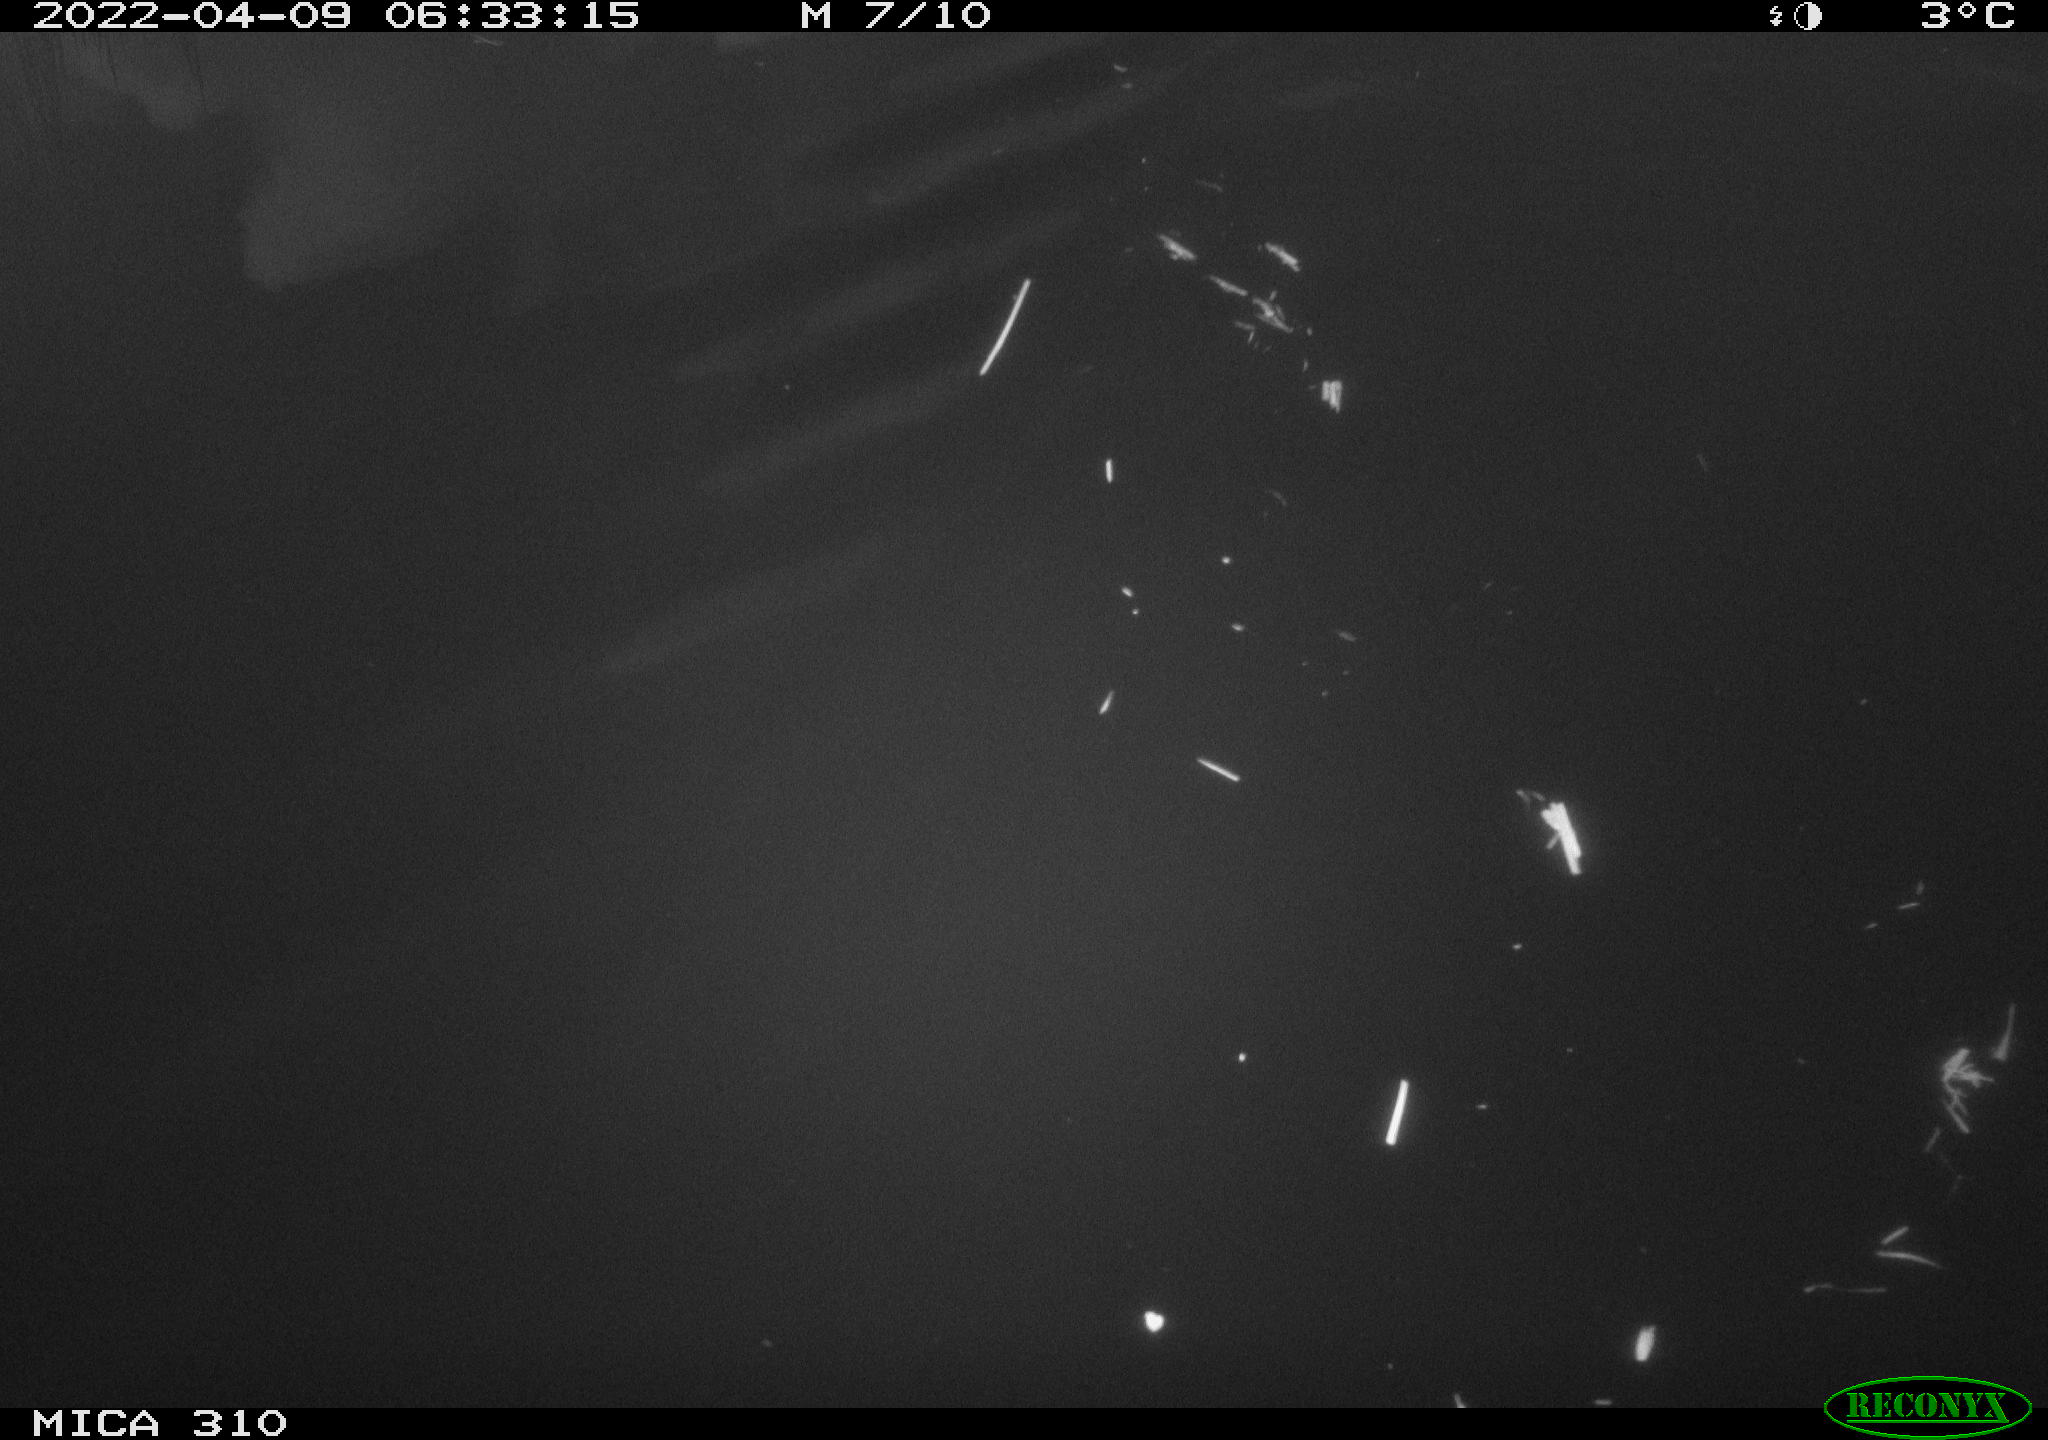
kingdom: Animalia
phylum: Chordata
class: Aves
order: Anseriformes
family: Anatidae
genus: Anas
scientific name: Anas platyrhynchos
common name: Mallard
